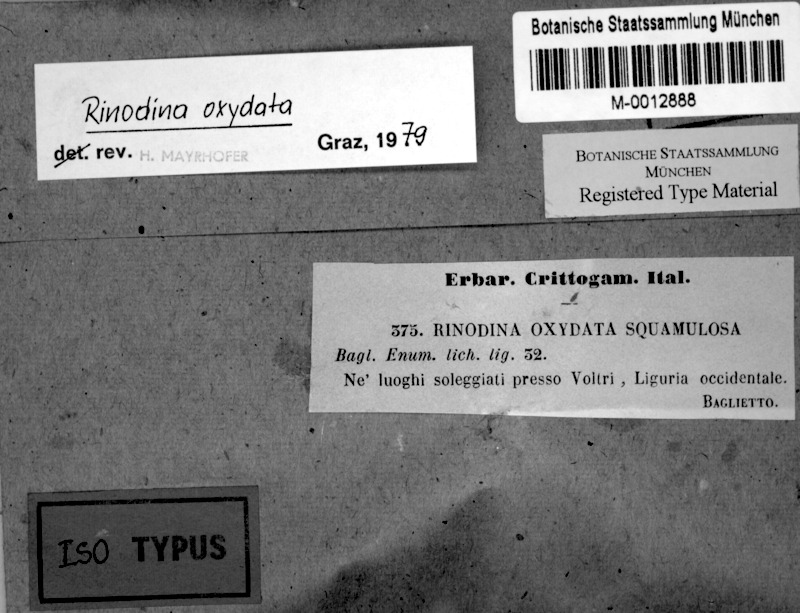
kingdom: Fungi
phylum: Ascomycota
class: Lecanoromycetes
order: Caliciales
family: Physciaceae
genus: Mischoblastia
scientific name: Mischoblastia oxydata
